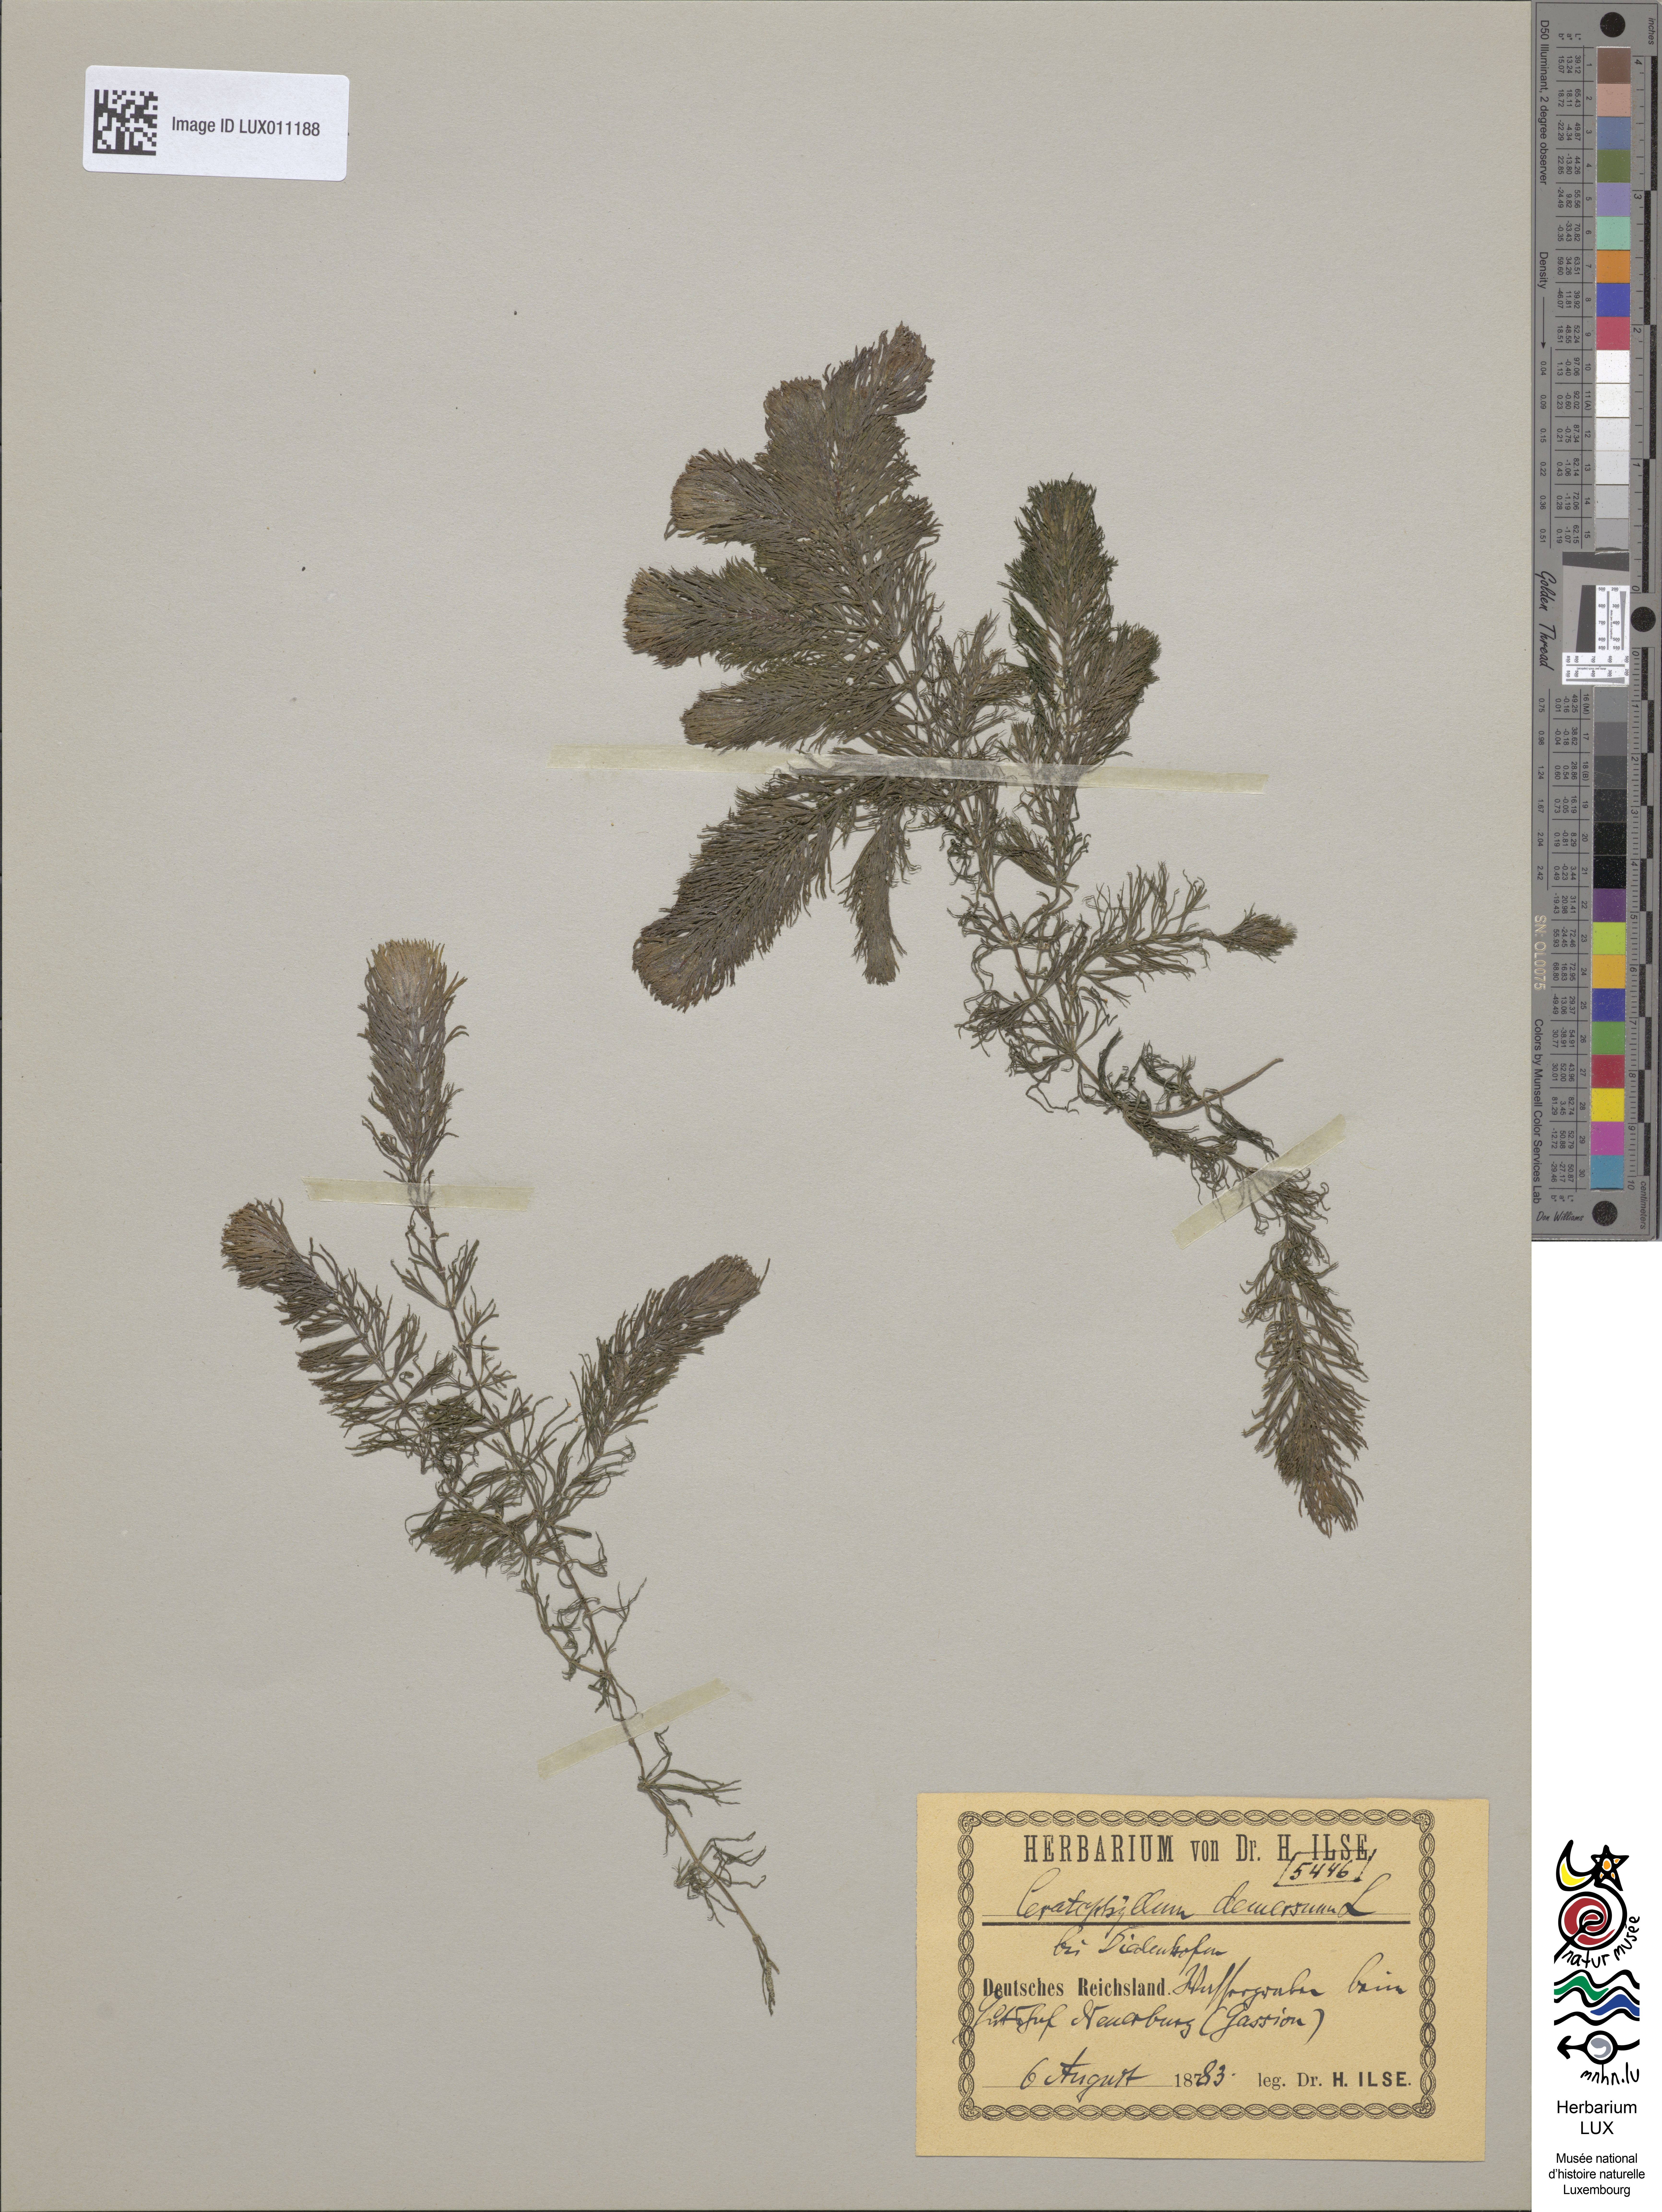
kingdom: Plantae
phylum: Tracheophyta
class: Magnoliopsida
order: Ceratophyllales
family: Ceratophyllaceae
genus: Ceratophyllum
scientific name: Ceratophyllum demersum
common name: Rigid hornwort
